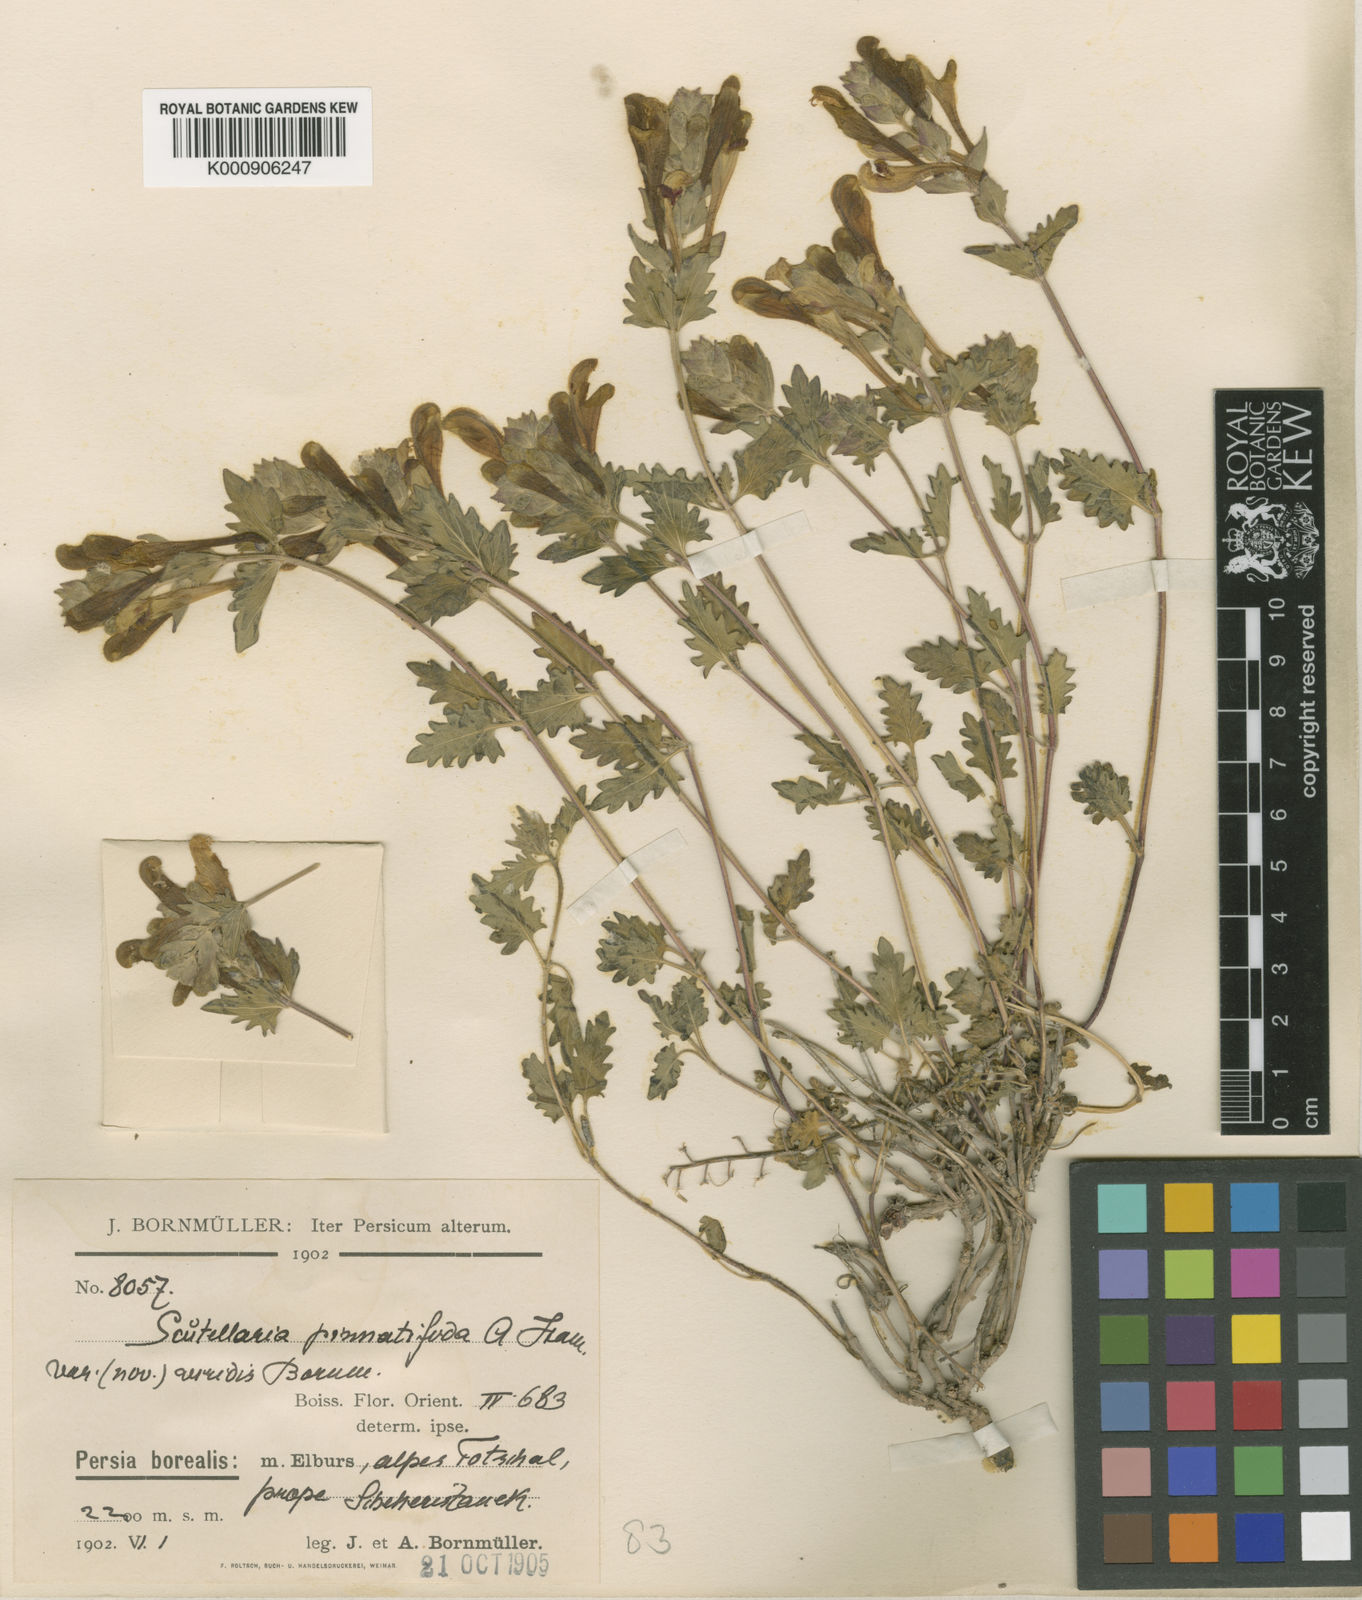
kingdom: Plantae
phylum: Tracheophyta
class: Magnoliopsida
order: Lamiales
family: Lamiaceae
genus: Scutellaria
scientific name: Scutellaria pinnatifida
